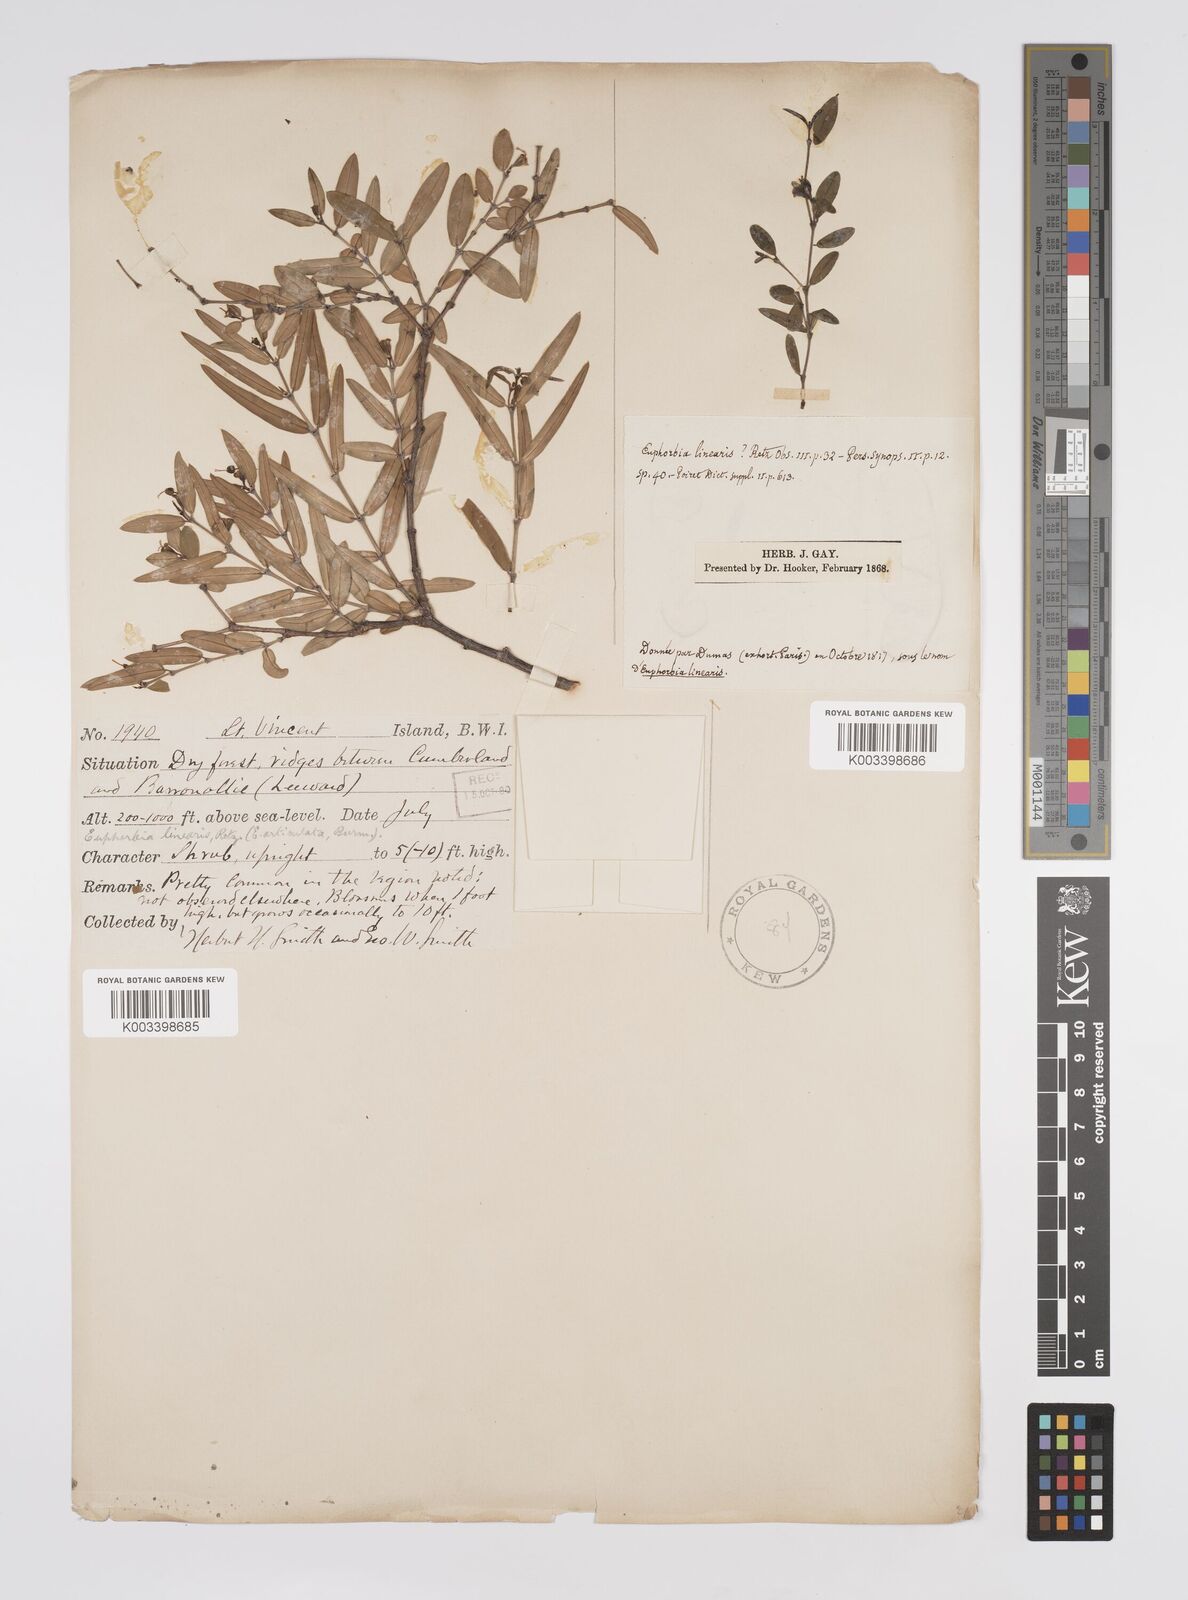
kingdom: Plantae
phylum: Tracheophyta
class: Magnoliopsida
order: Malpighiales
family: Euphorbiaceae
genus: Euphorbia
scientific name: Euphorbia articulata
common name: Jointed sandmat
